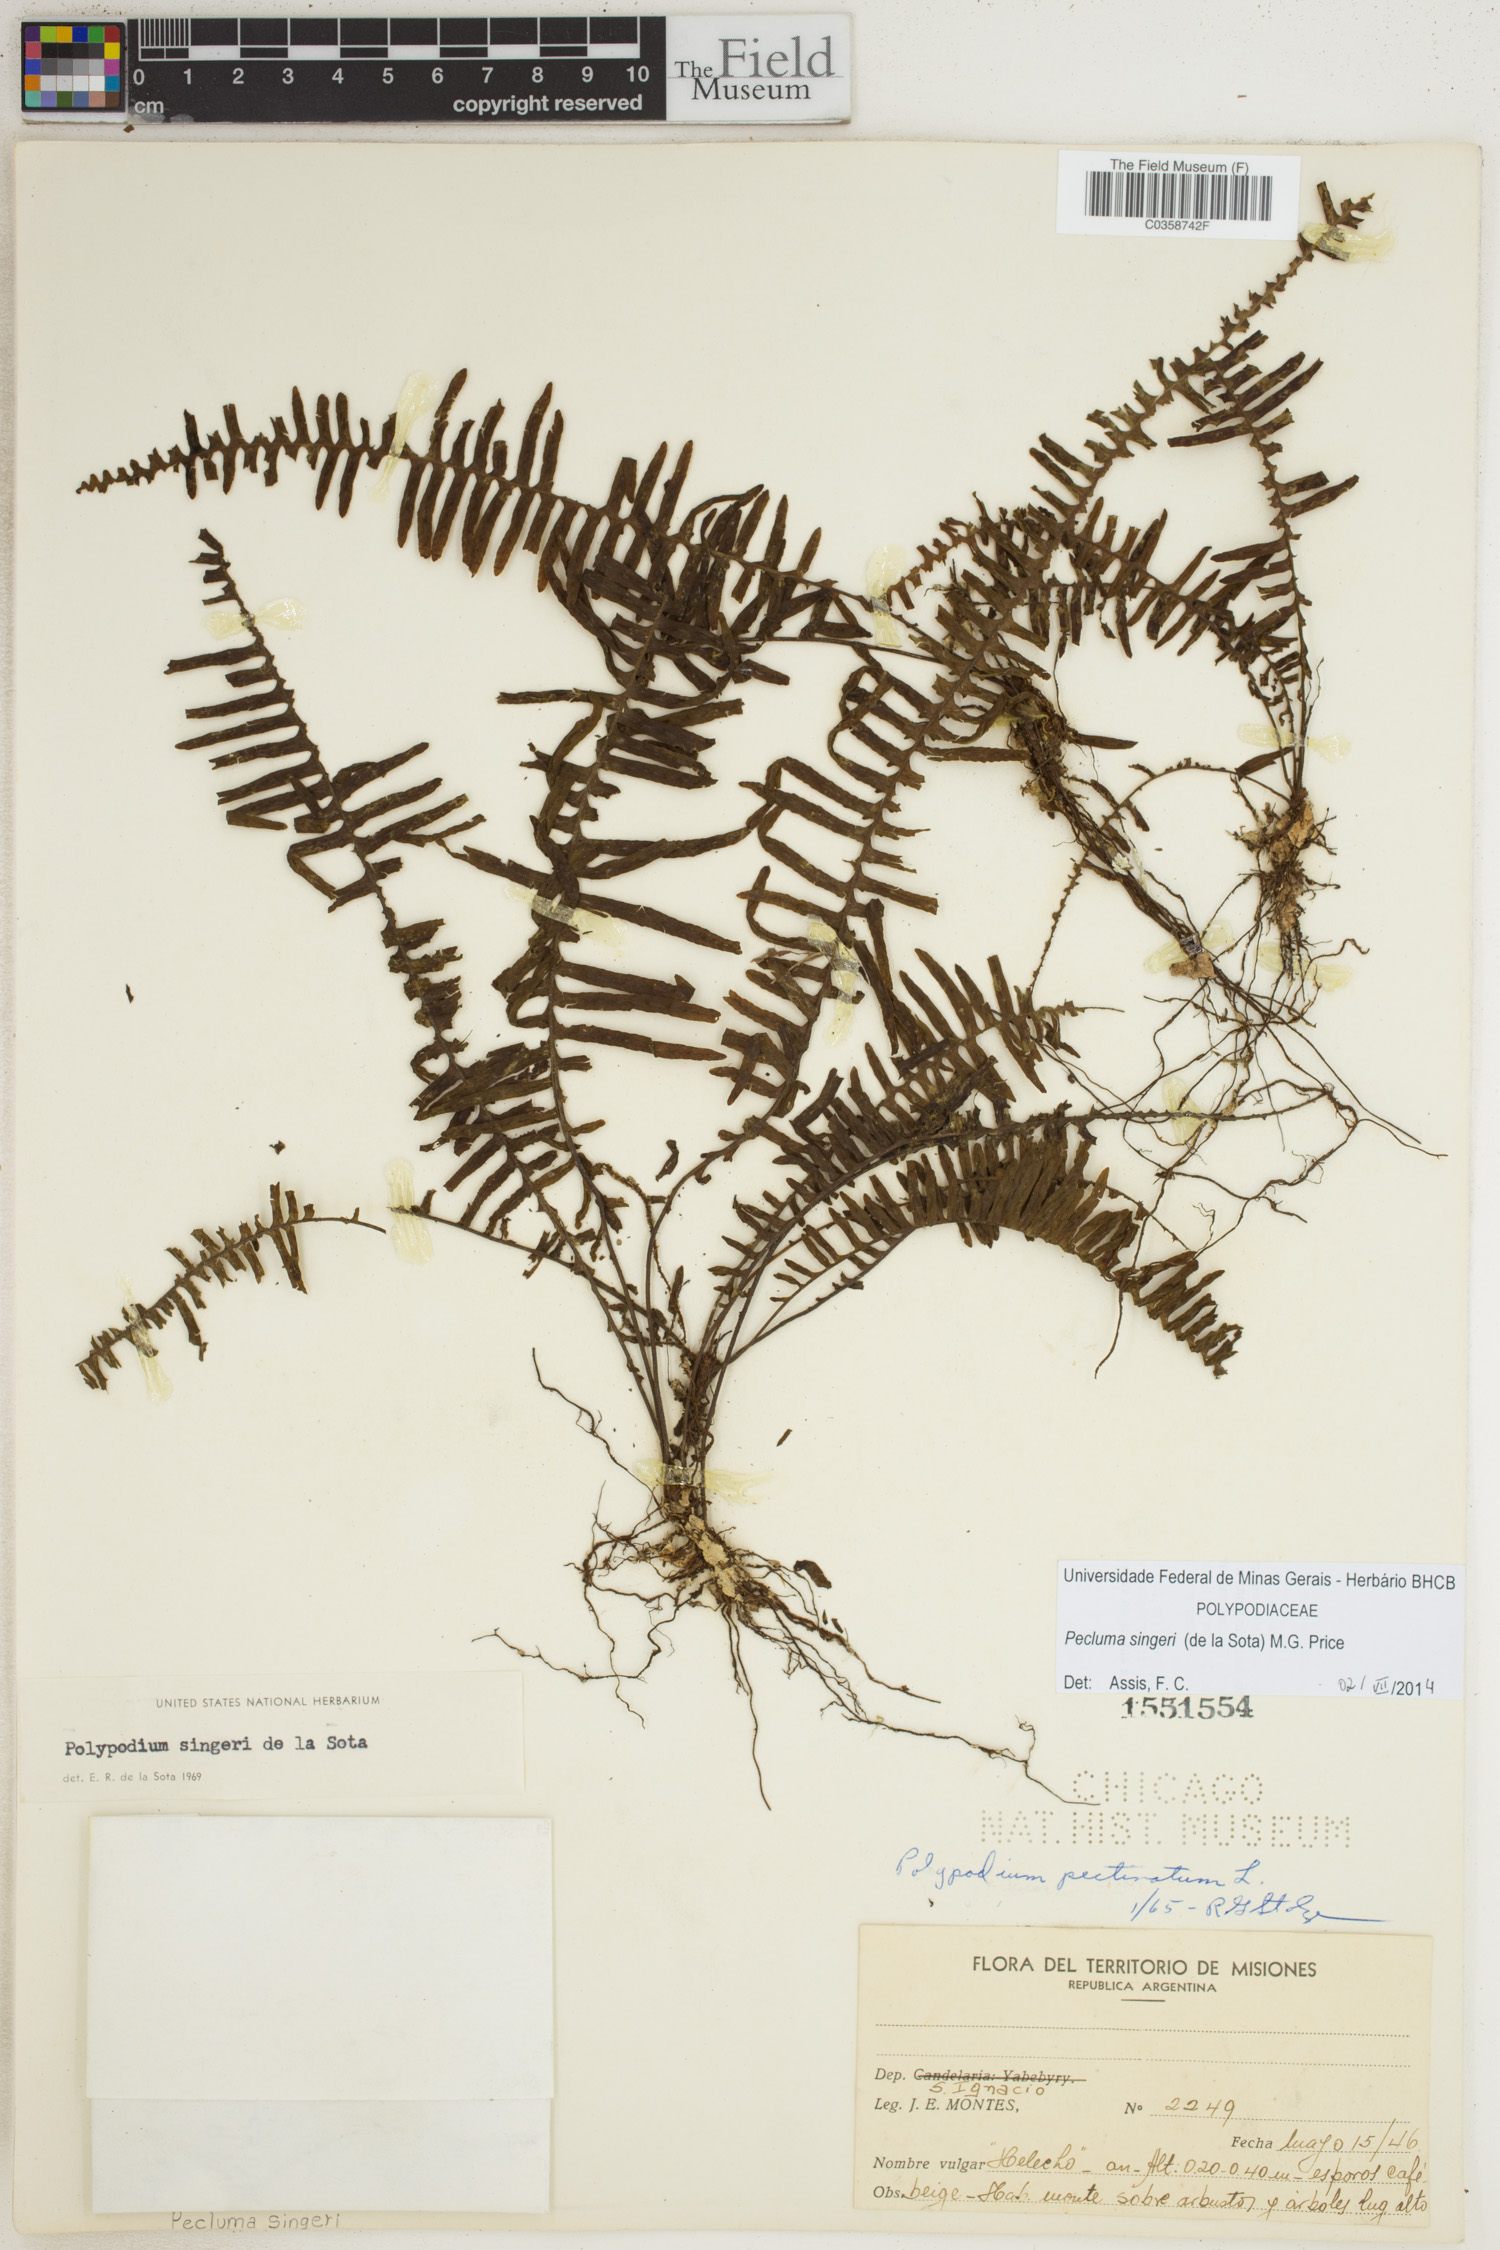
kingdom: Plantae
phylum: Tracheophyta
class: Polypodiopsida
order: Polypodiales
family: Polypodiaceae
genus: Pecluma
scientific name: Pecluma singeri
